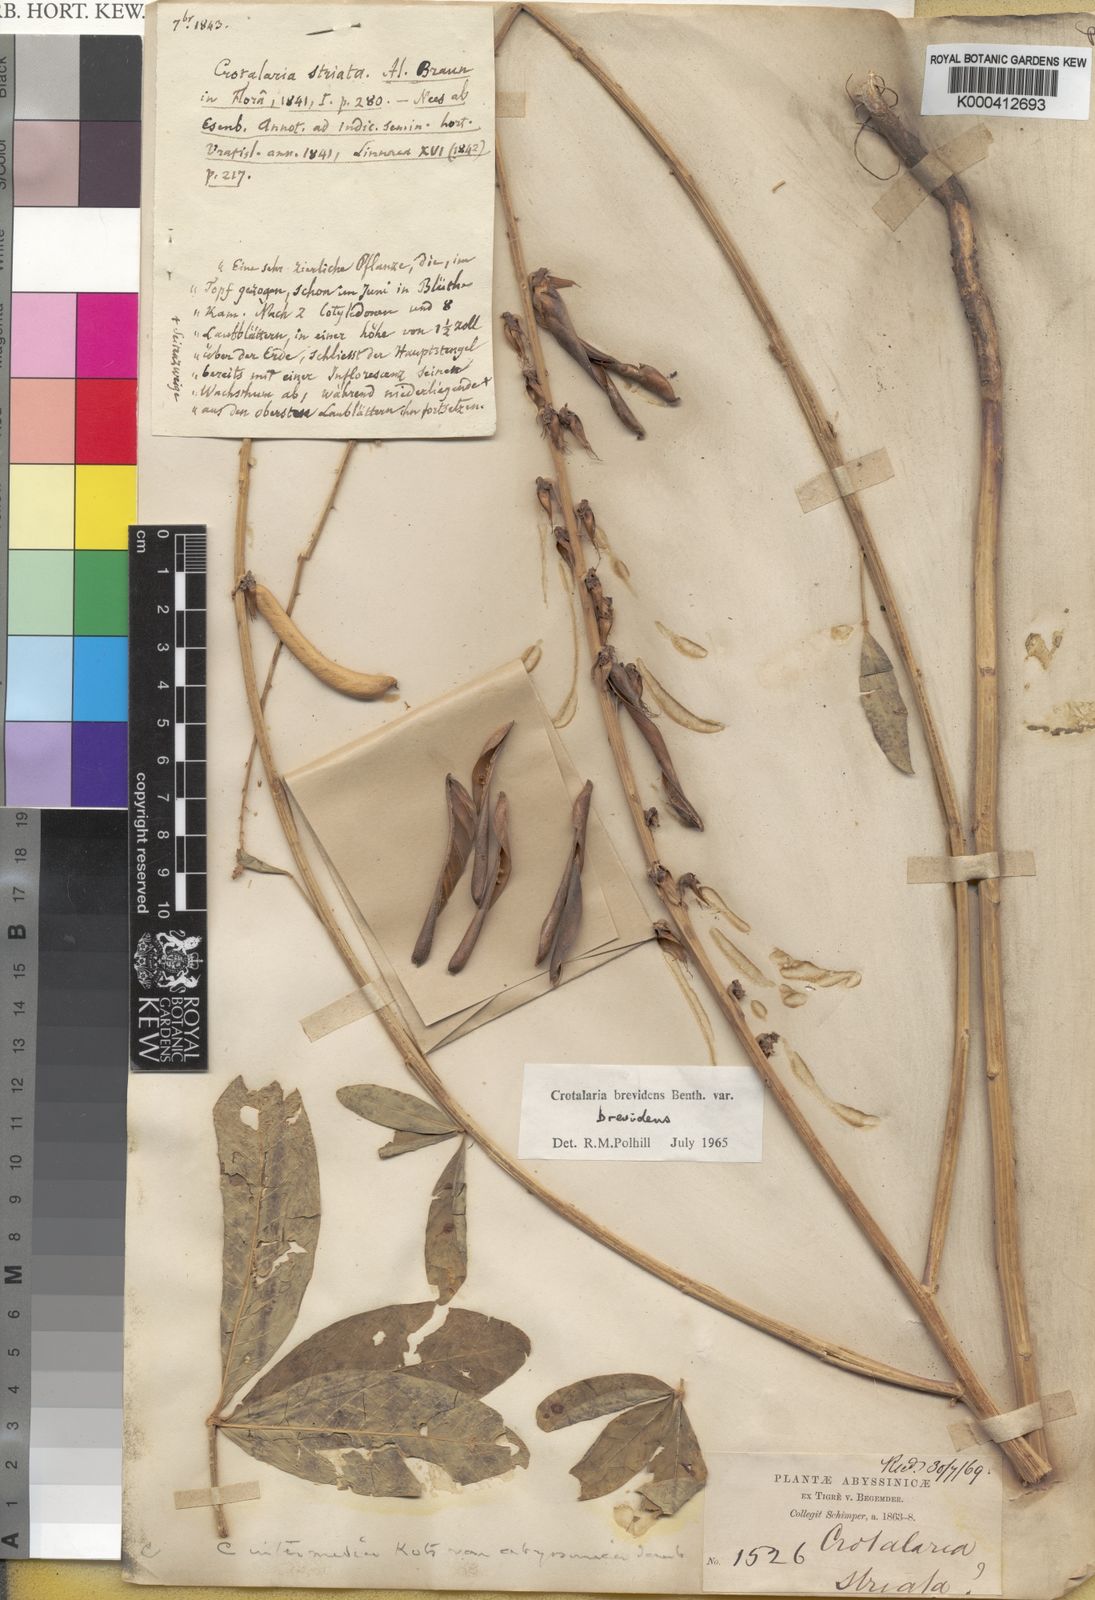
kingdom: Plantae
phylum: Tracheophyta
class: Magnoliopsida
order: Fabales
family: Fabaceae
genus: Crotalaria
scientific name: Crotalaria brevidens
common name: Ethiopian rattlebox
